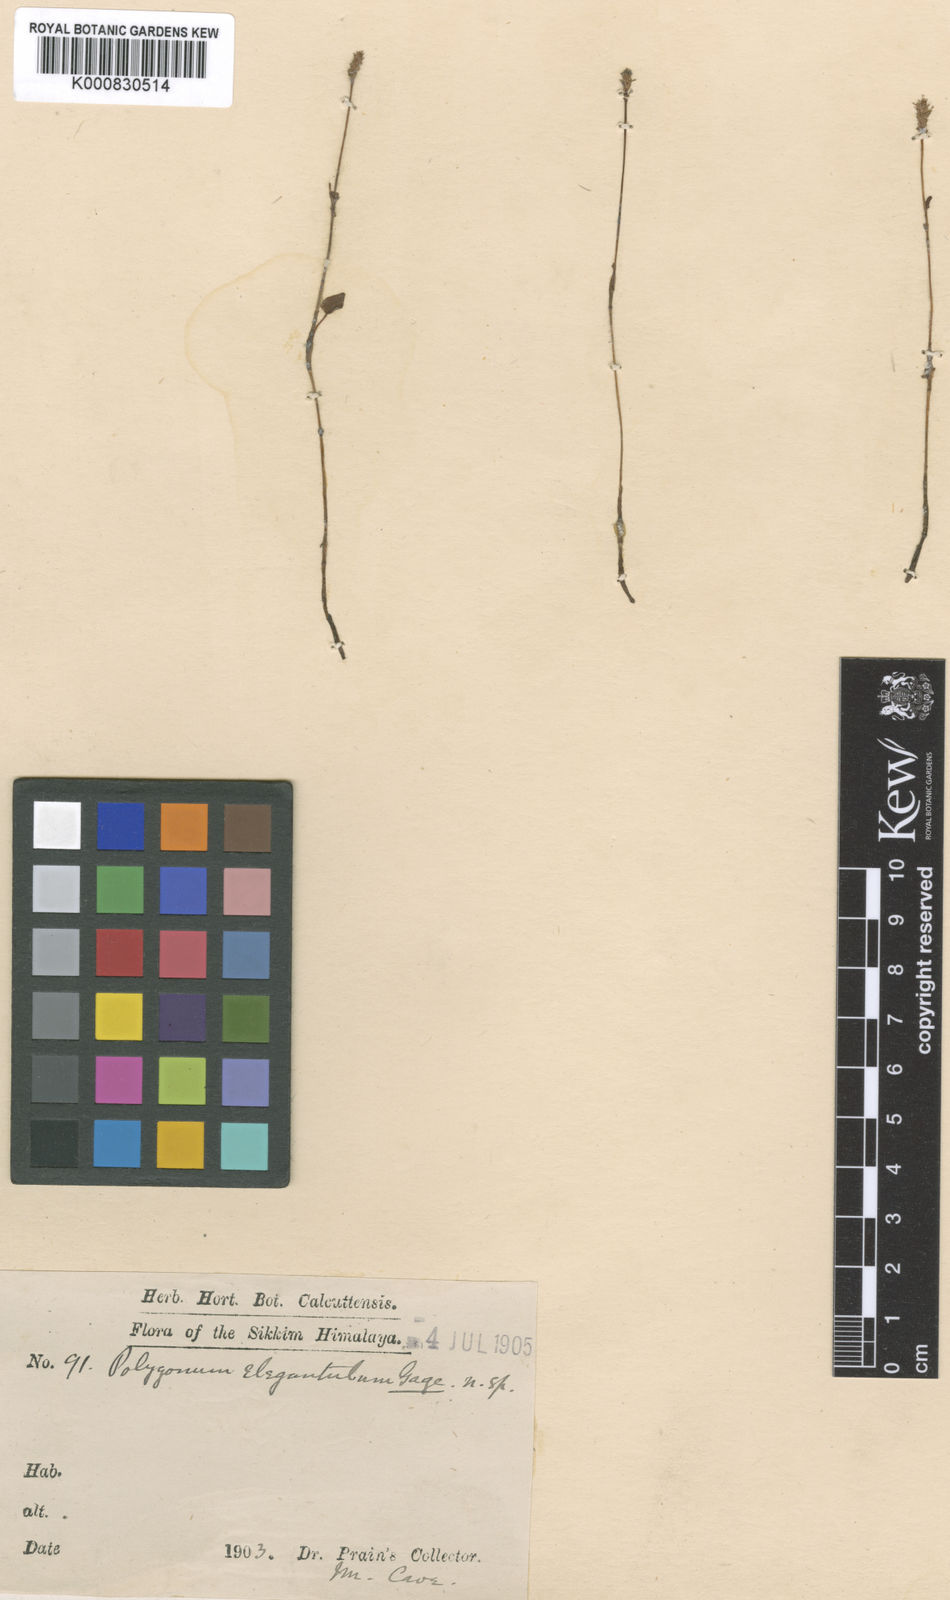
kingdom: Plantae
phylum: Tracheophyta
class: Magnoliopsida
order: Caryophyllales
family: Polygonaceae
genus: Polygonum
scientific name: Polygonum
